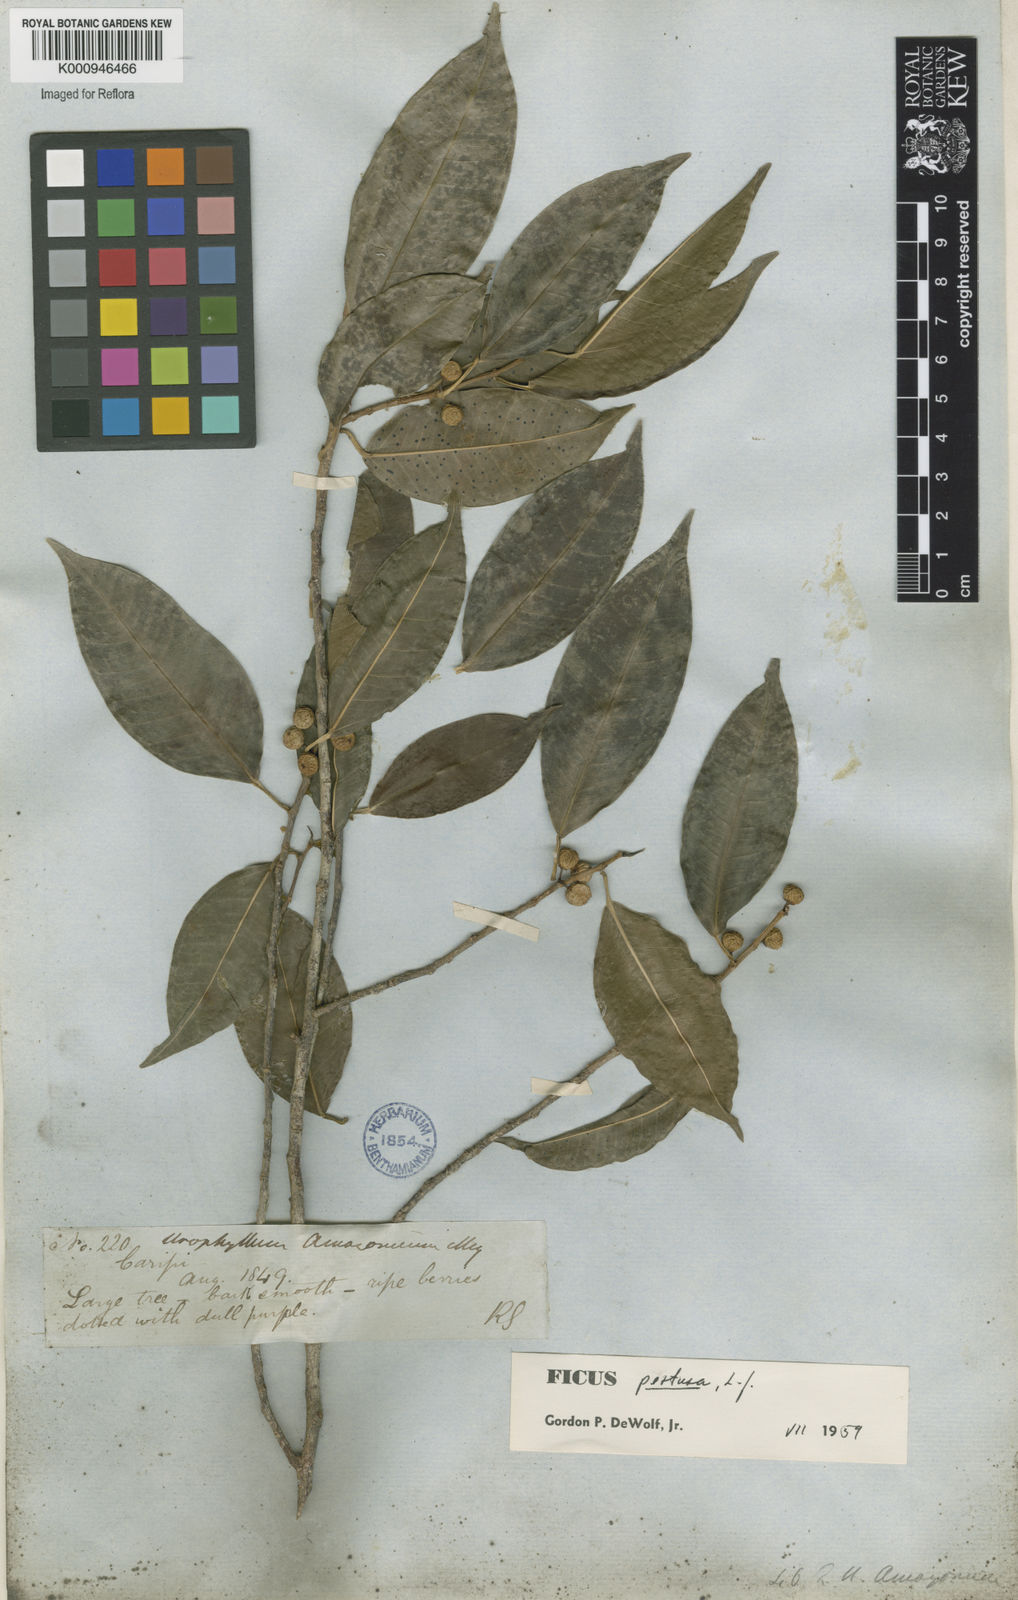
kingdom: Plantae
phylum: Tracheophyta
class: Magnoliopsida
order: Rosales
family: Moraceae
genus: Ficus
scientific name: Ficus pertusa
